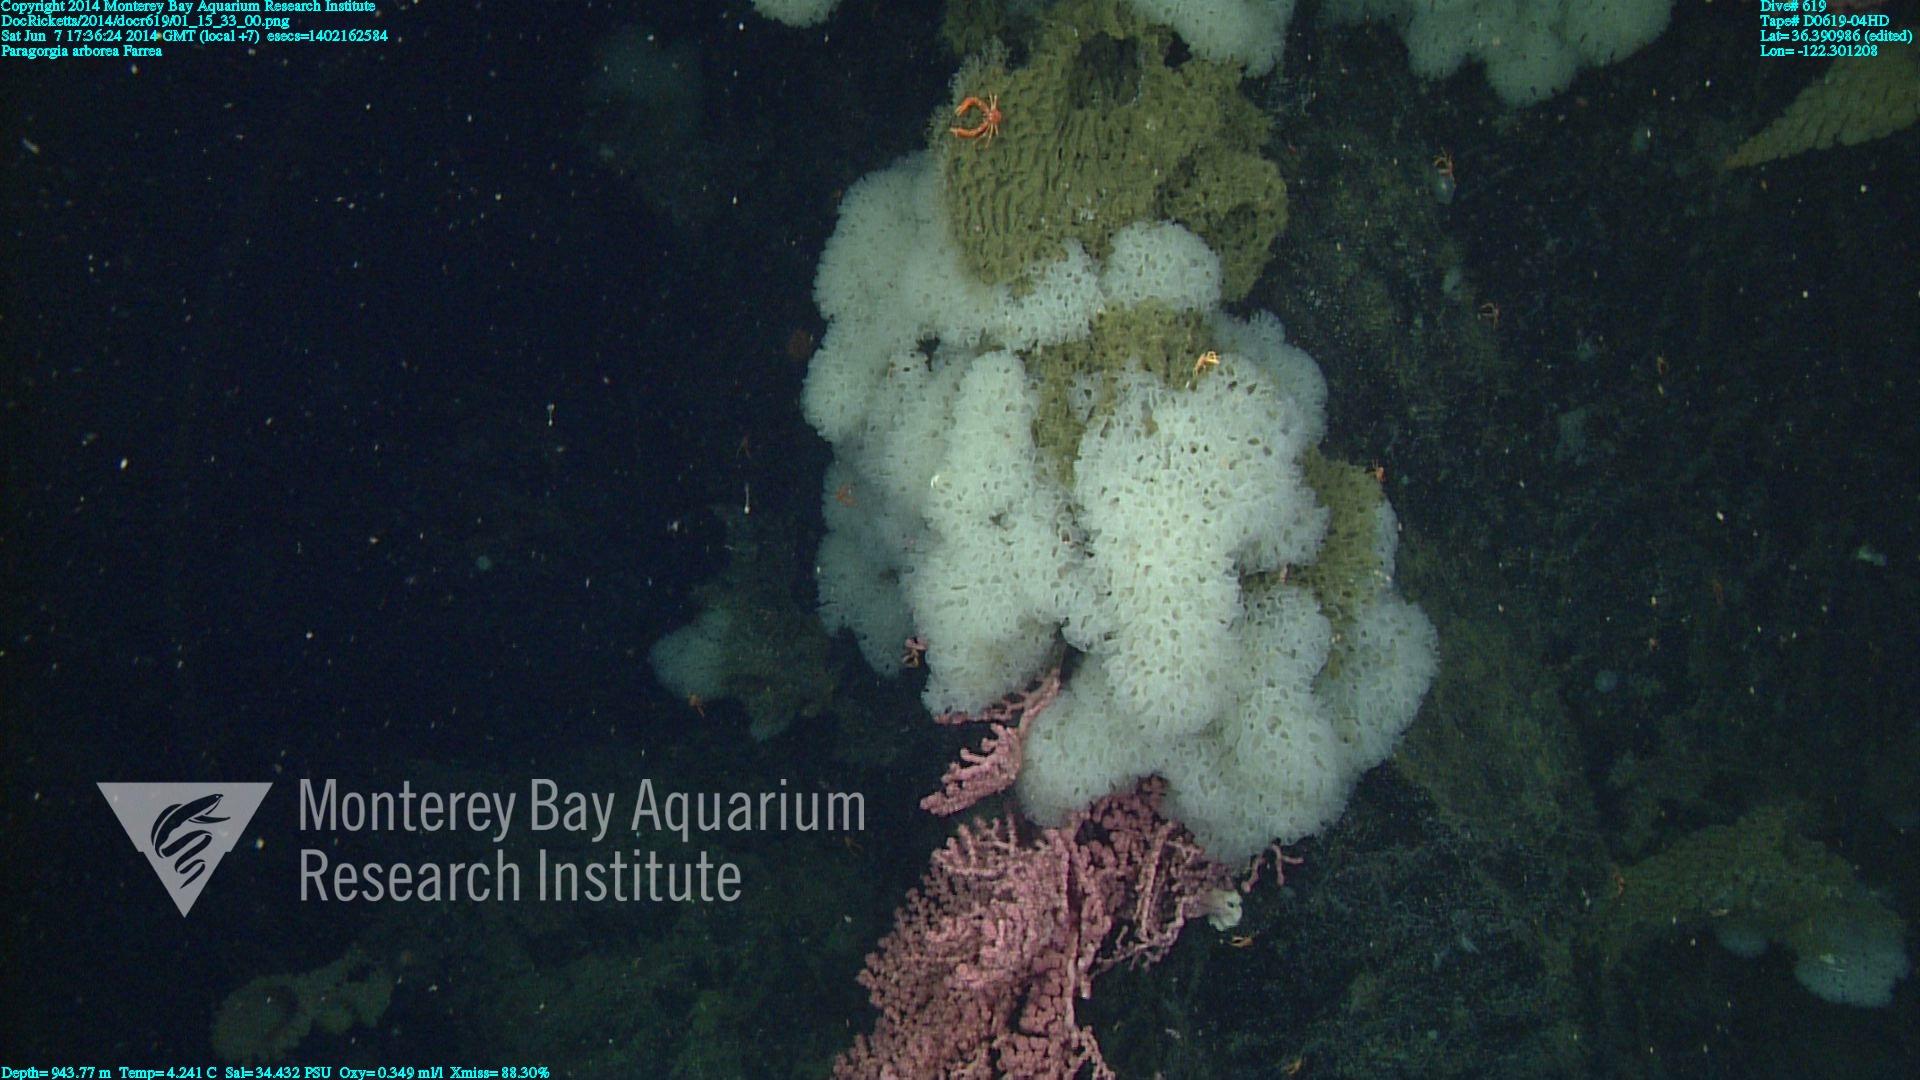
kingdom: Animalia
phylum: Cnidaria
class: Anthozoa
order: Scleralcyonacea
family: Coralliidae
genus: Paragorgia
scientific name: Paragorgia arborea
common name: Bubble gum coral
